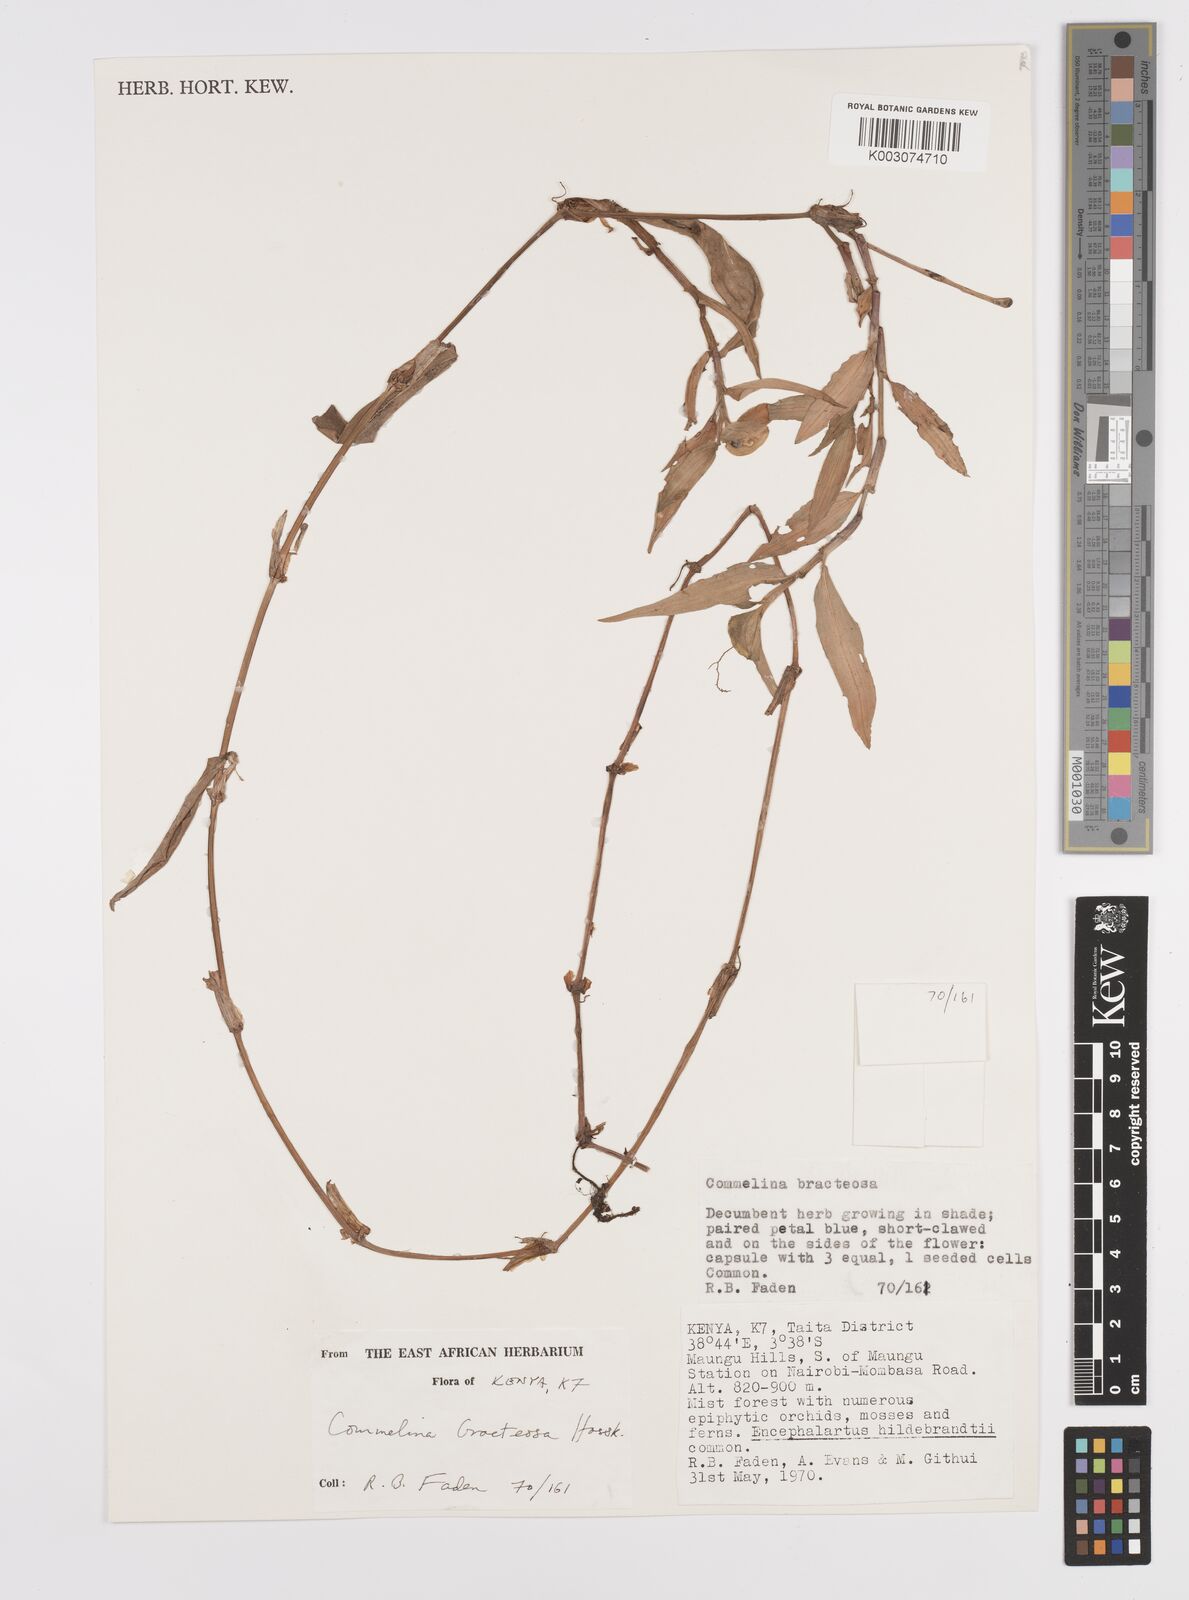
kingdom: Plantae
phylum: Tracheophyta
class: Liliopsida
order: Commelinales
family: Commelinaceae
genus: Commelina
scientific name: Commelina bracteosa
